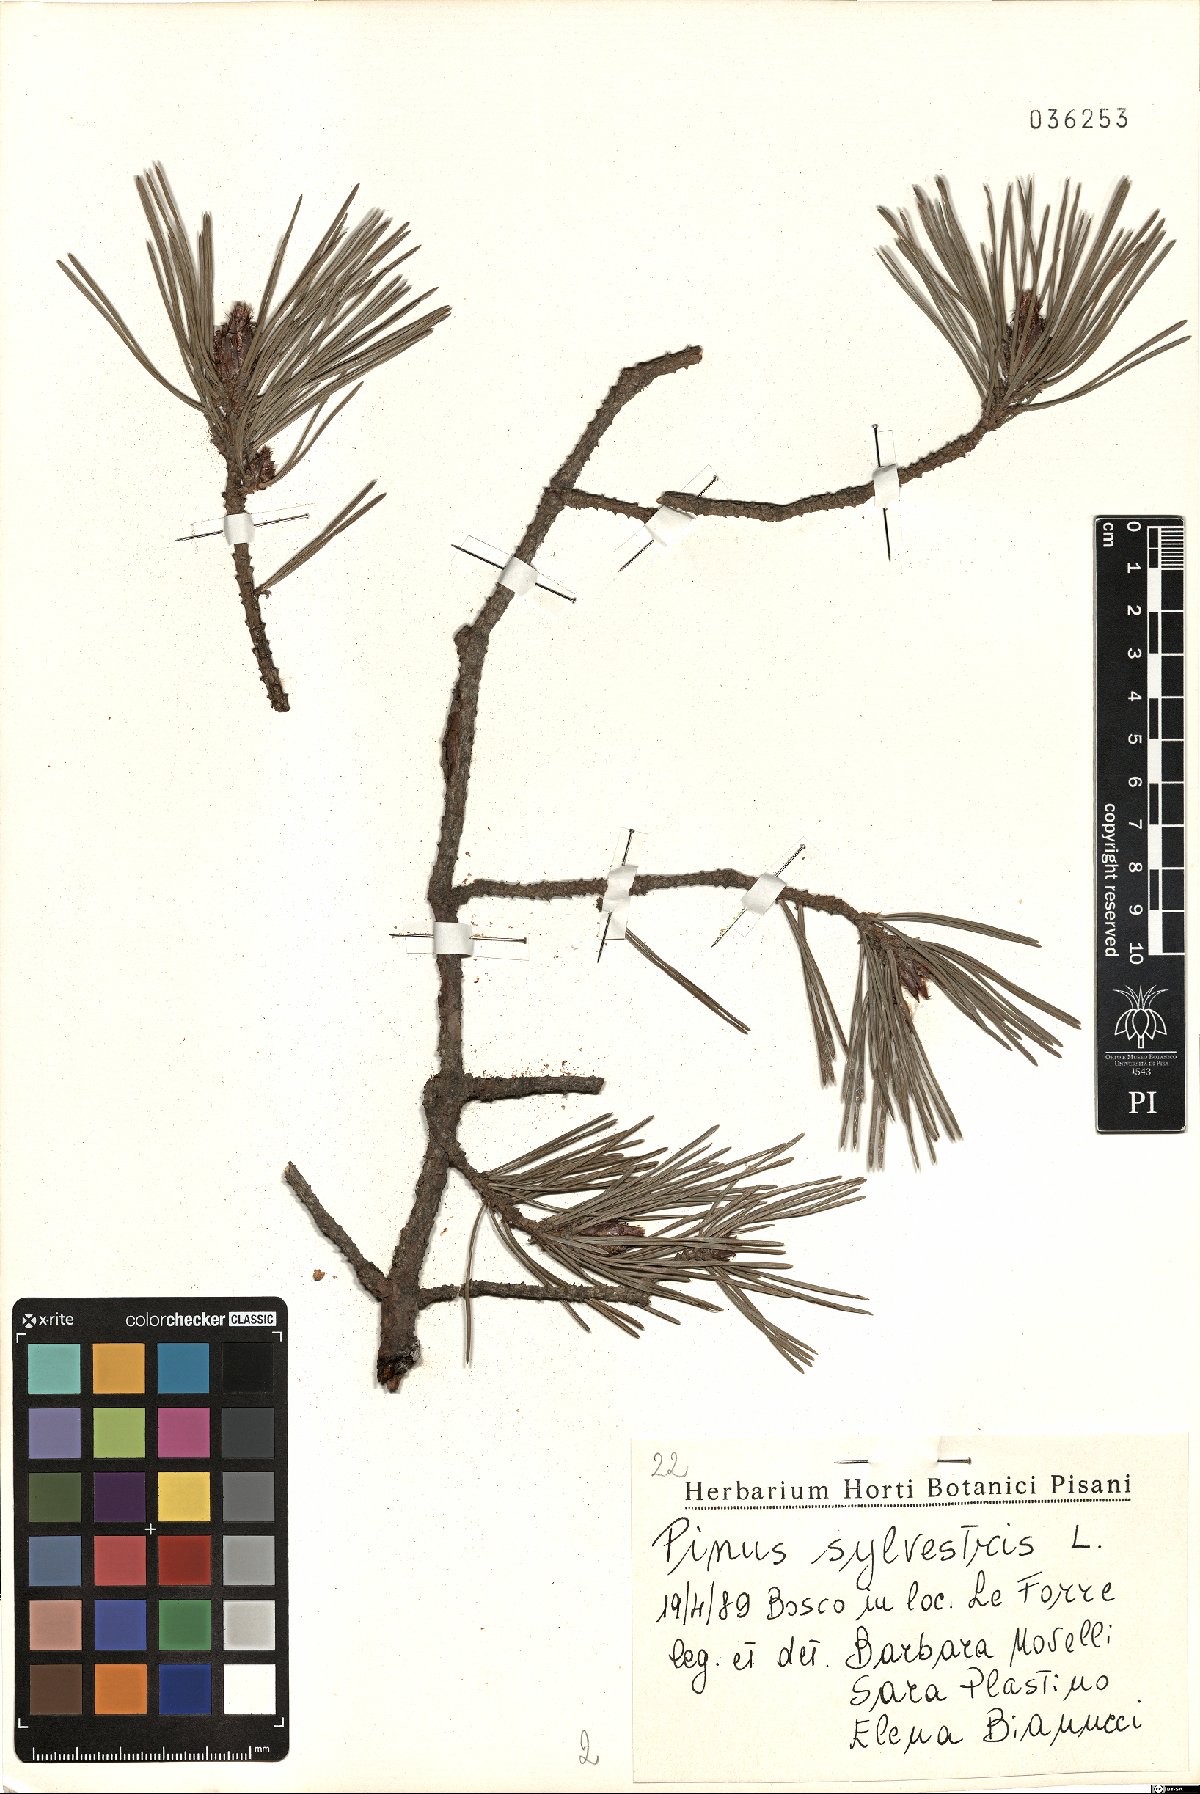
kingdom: Plantae
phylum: Tracheophyta
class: Pinopsida
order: Pinales
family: Pinaceae
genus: Pinus
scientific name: Pinus sylvestris
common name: Scots pine
